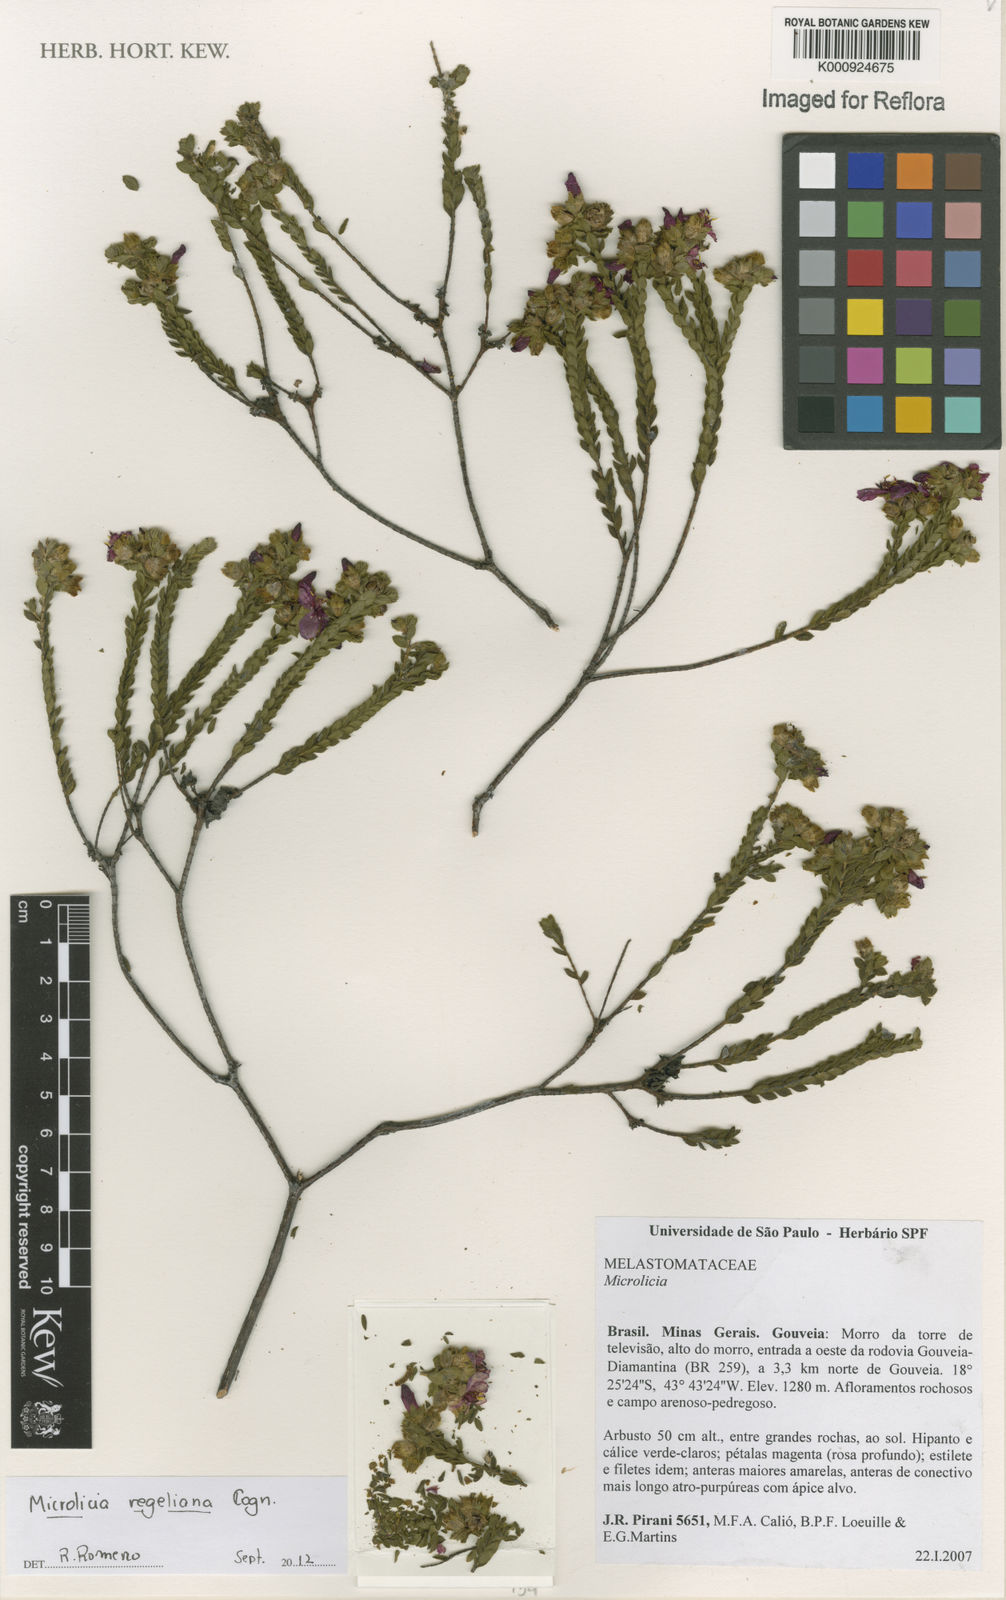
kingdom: Plantae
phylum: Tracheophyta
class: Magnoliopsida
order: Myrtales
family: Melastomataceae
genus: Microlicia
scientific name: Microlicia regeliana
